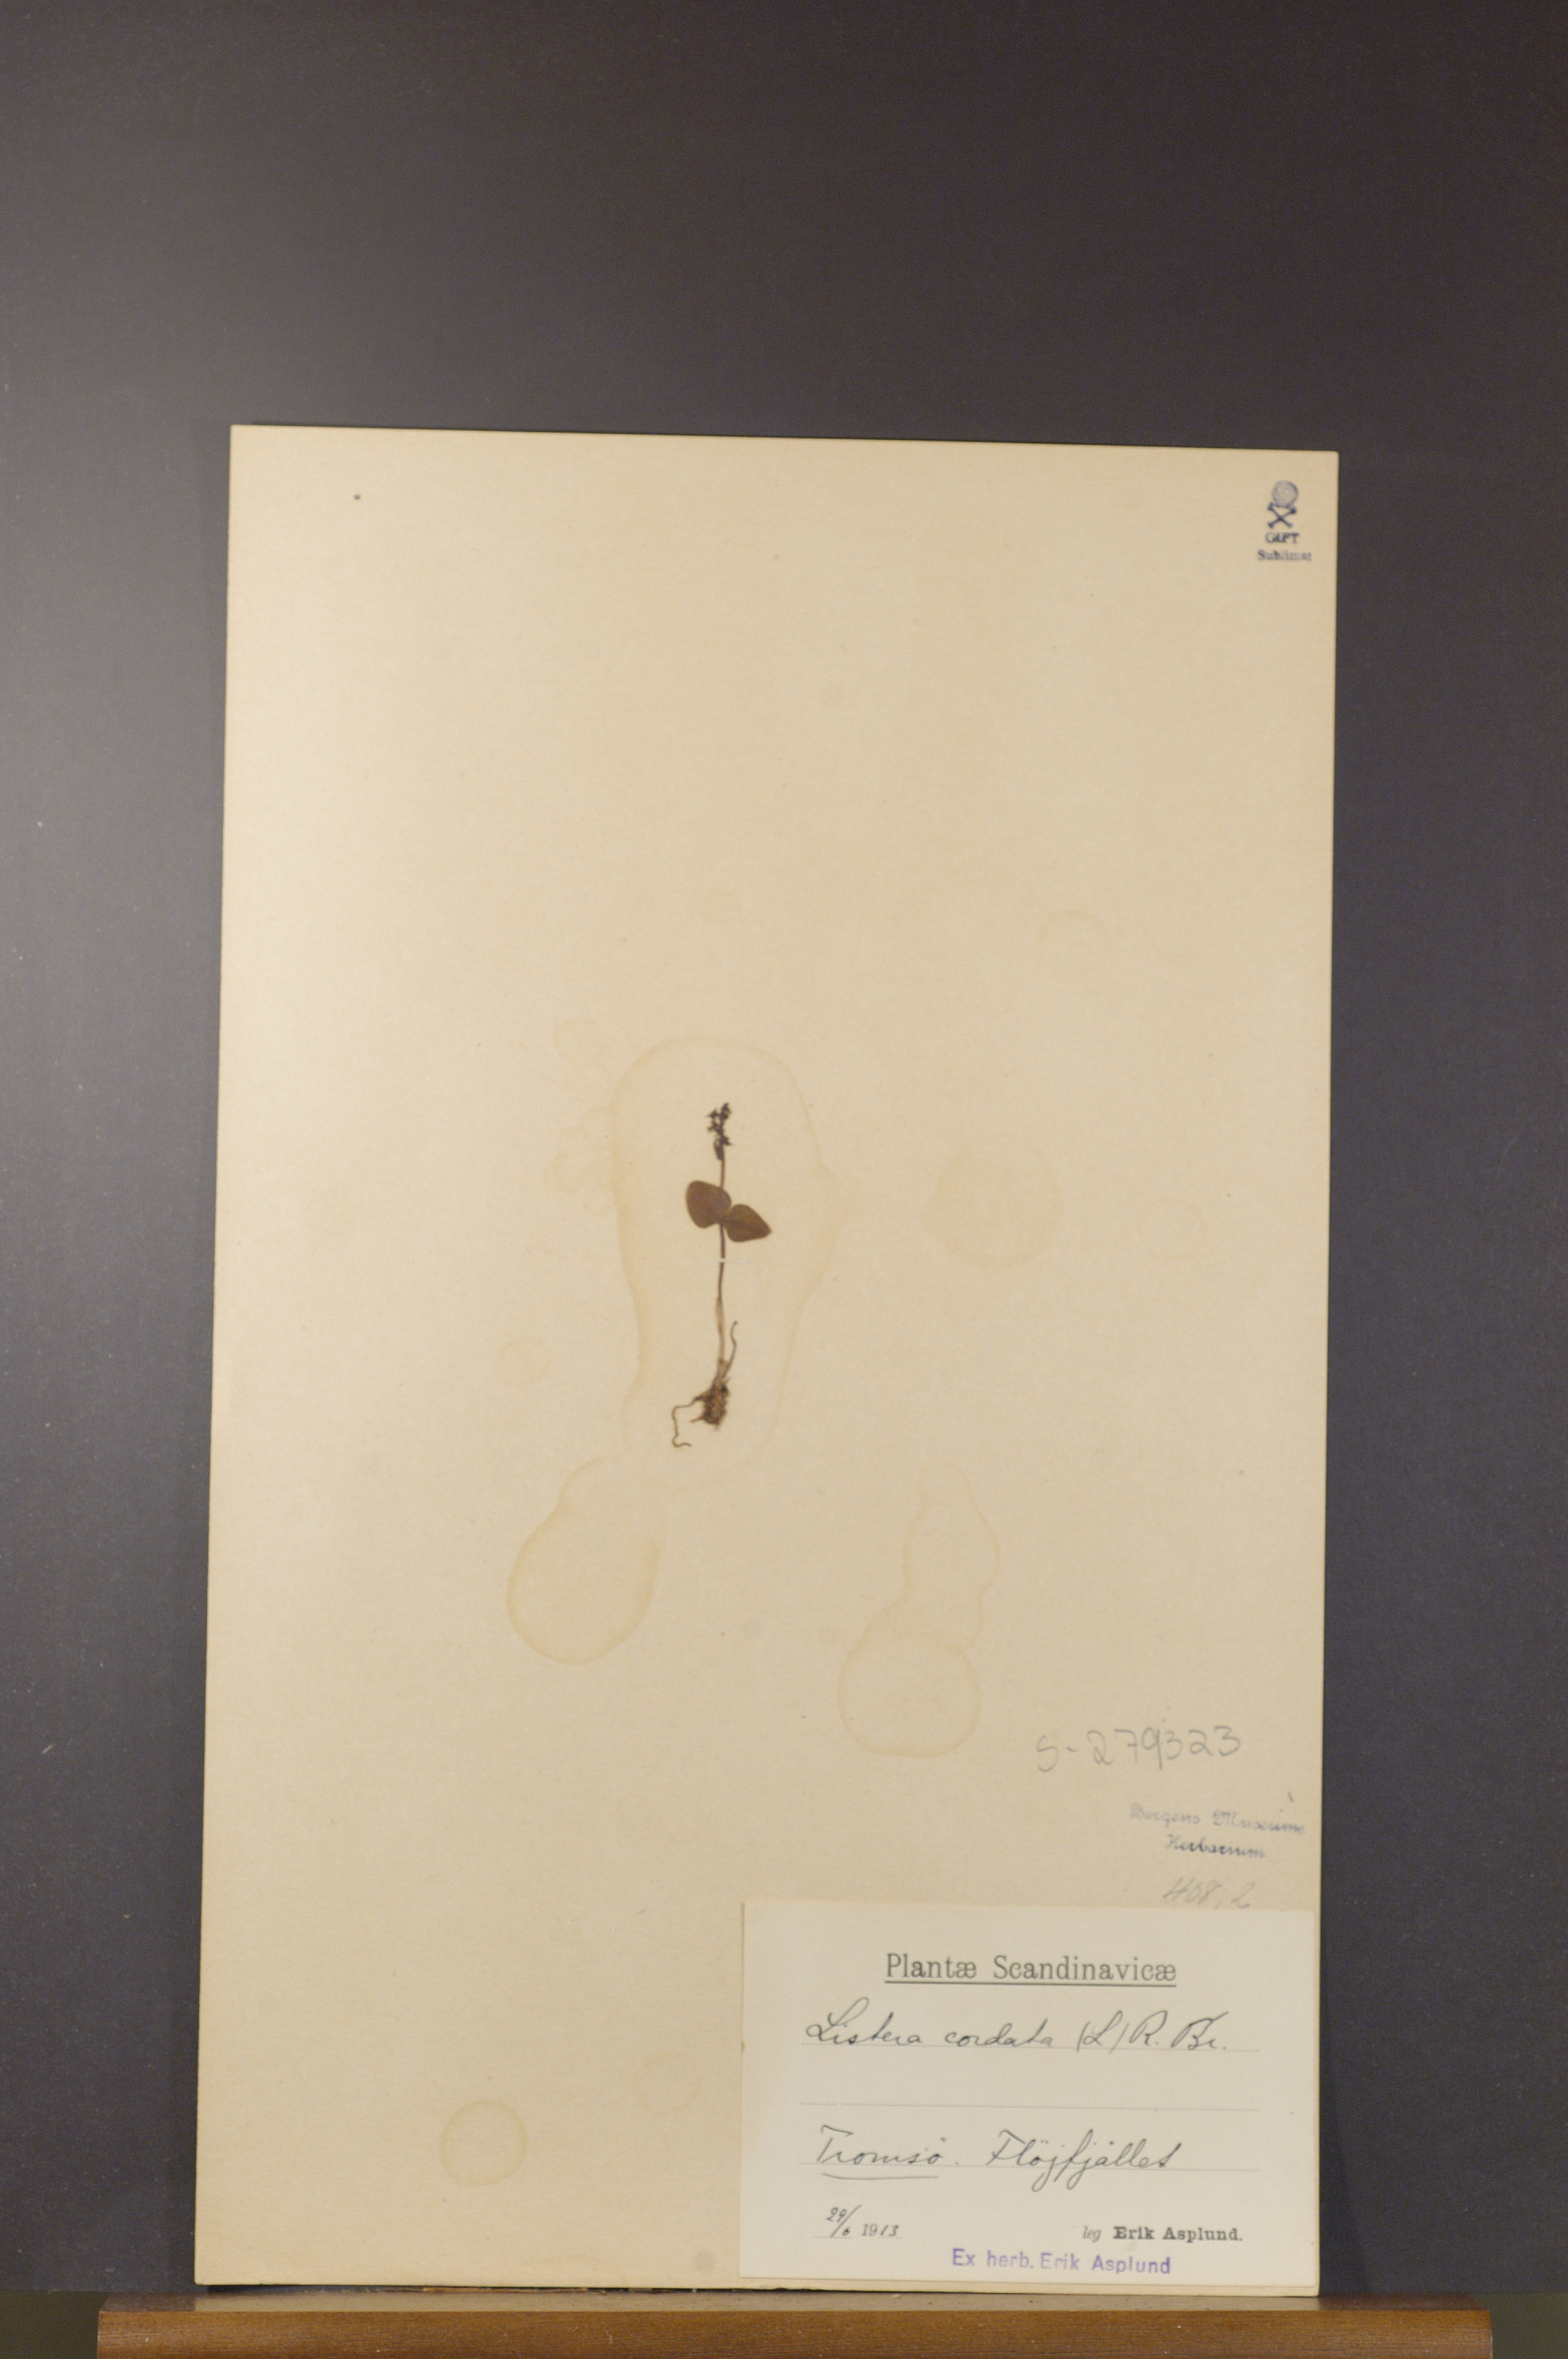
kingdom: Plantae
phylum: Tracheophyta
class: Liliopsida
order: Asparagales
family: Orchidaceae
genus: Neottia
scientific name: Neottia cordata
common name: Lesser twayblade
